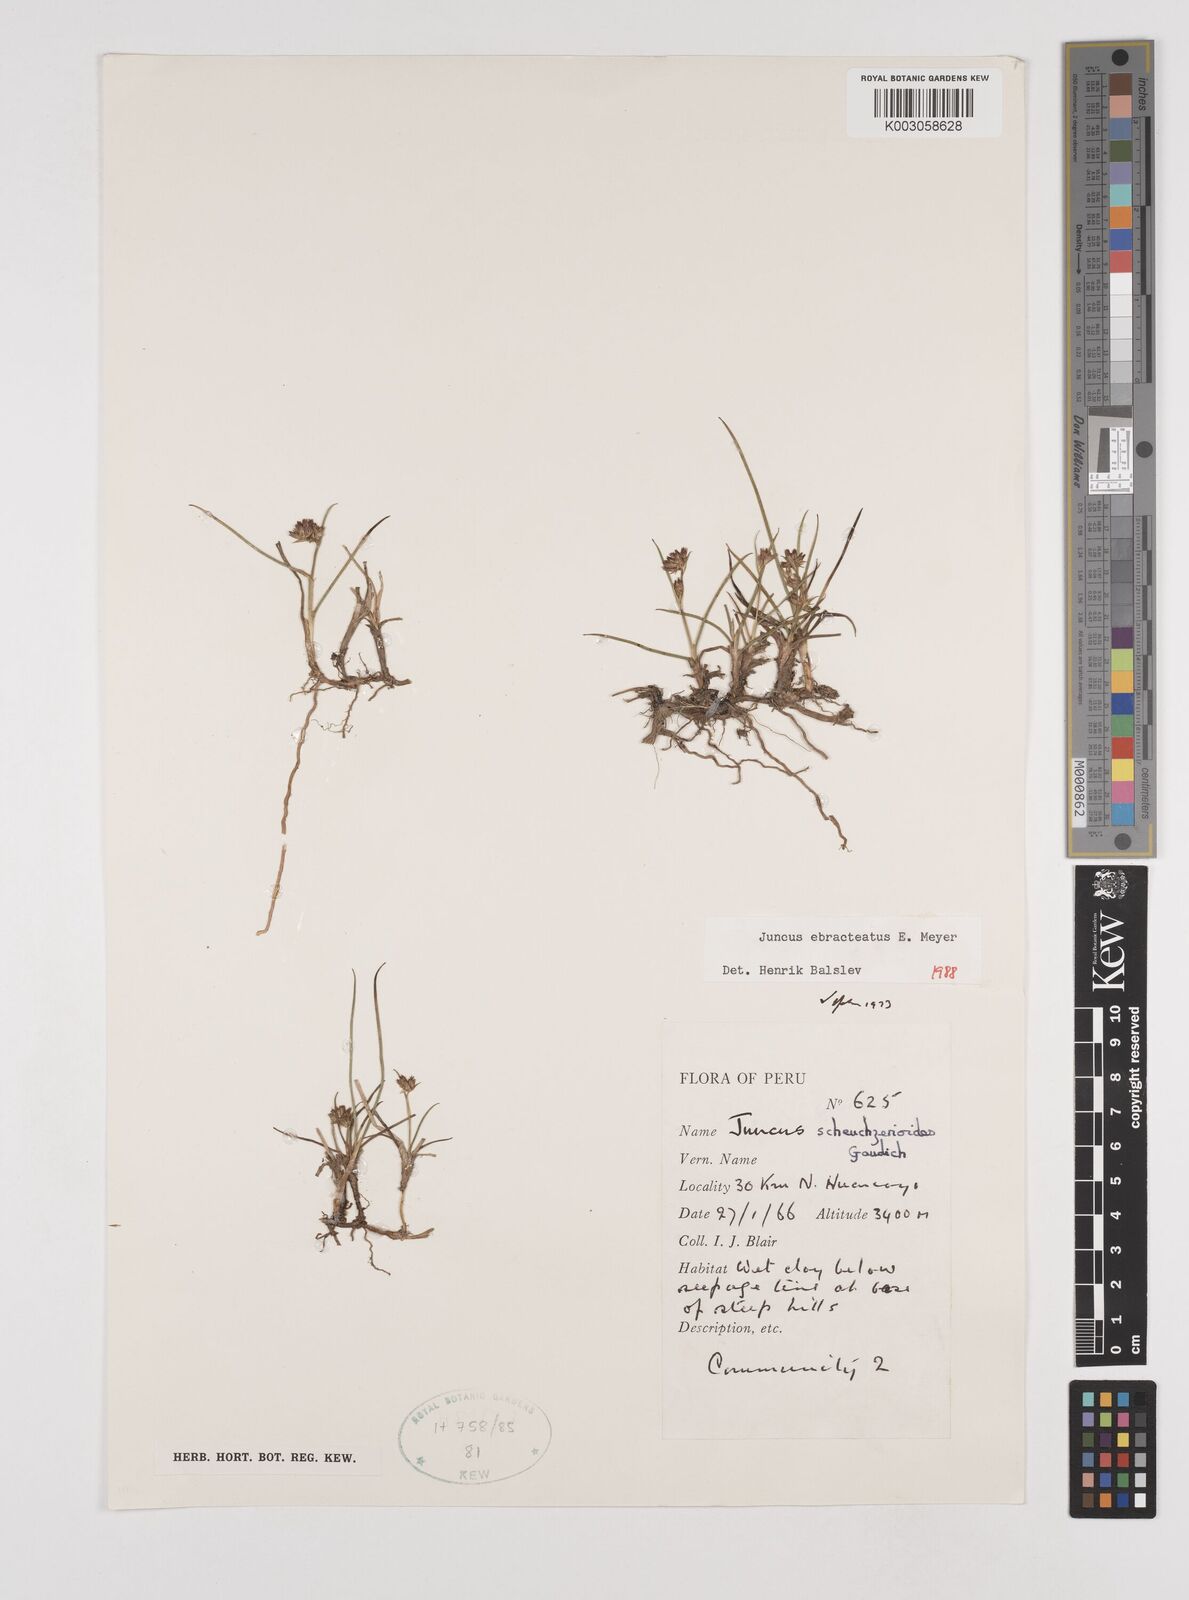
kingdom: Plantae
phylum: Tracheophyta
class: Liliopsida
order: Poales
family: Juncaceae
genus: Juncus
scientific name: Juncus ebracteatus
